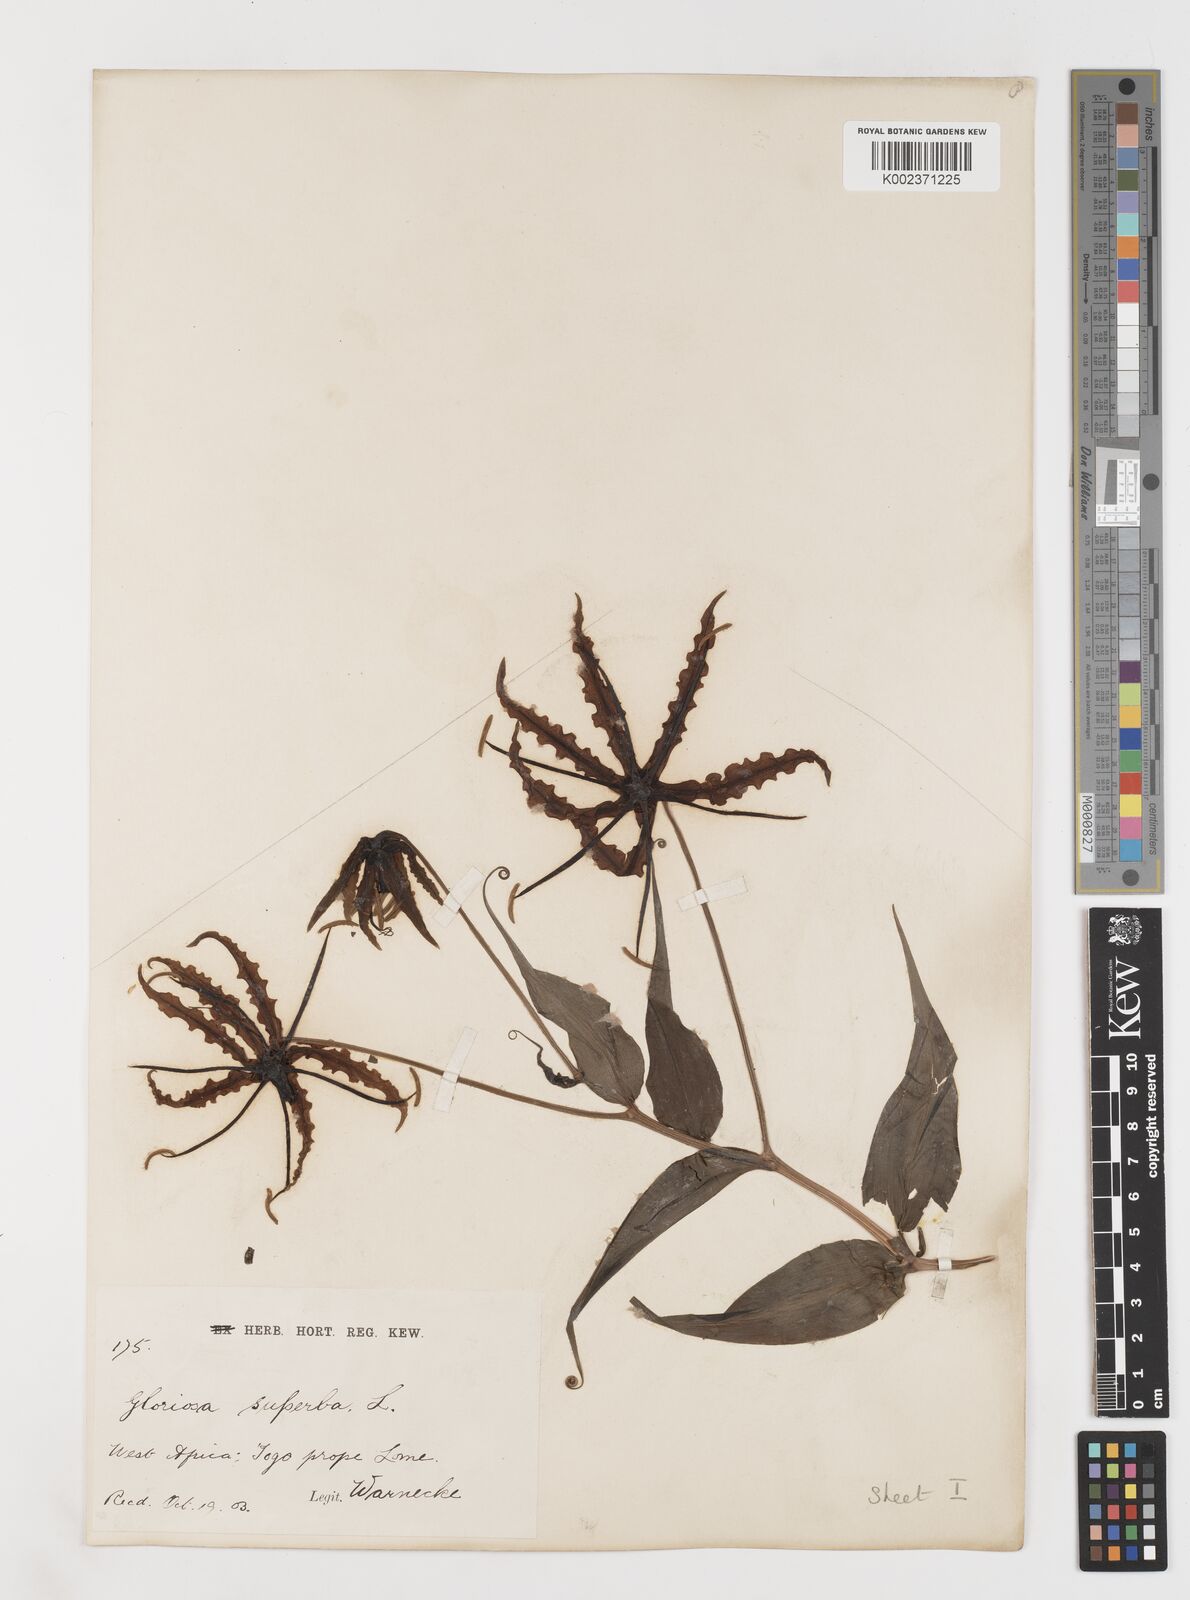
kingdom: Plantae
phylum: Tracheophyta
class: Liliopsida
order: Liliales
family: Colchicaceae
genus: Gloriosa
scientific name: Gloriosa superba
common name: Flame lily
